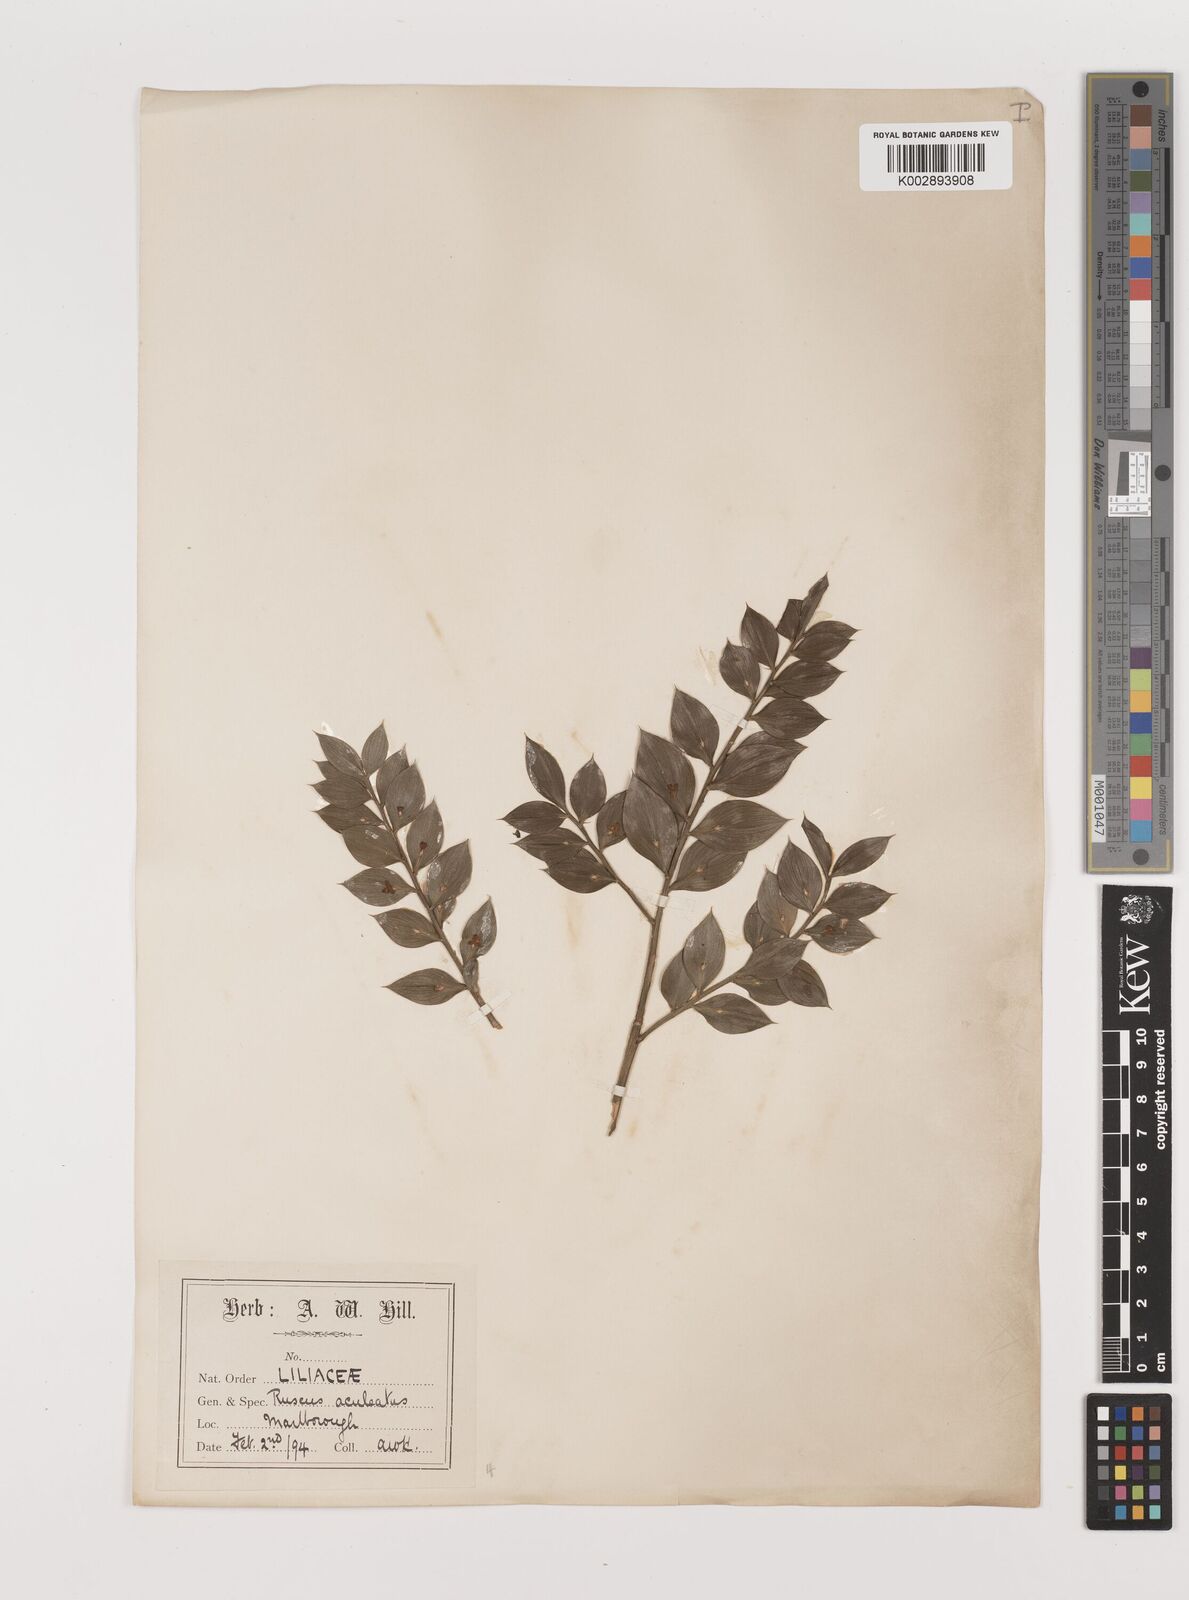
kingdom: Plantae
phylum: Tracheophyta
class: Liliopsida
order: Asparagales
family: Asparagaceae
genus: Ruscus
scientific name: Ruscus aculeatus
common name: Butcher's-broom
